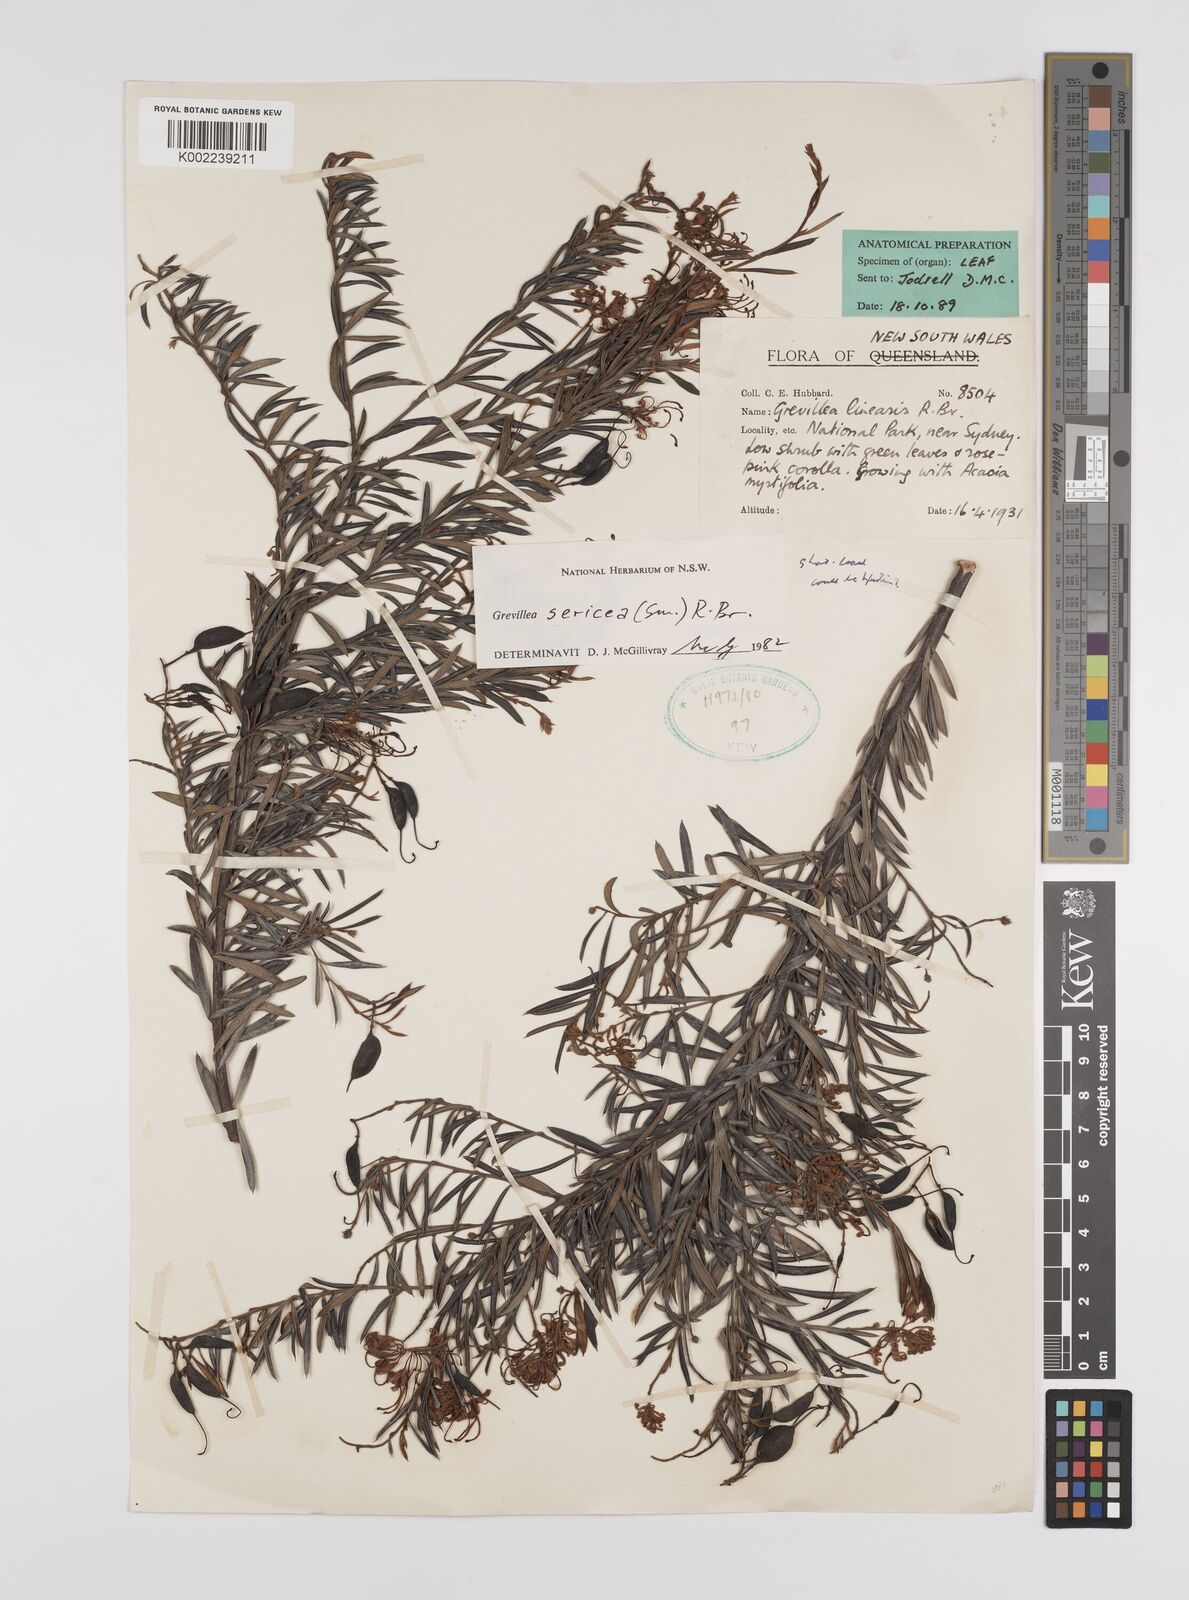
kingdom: Plantae
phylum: Tracheophyta
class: Magnoliopsida
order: Proteales
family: Proteaceae
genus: Grevillea
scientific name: Grevillea sericea
